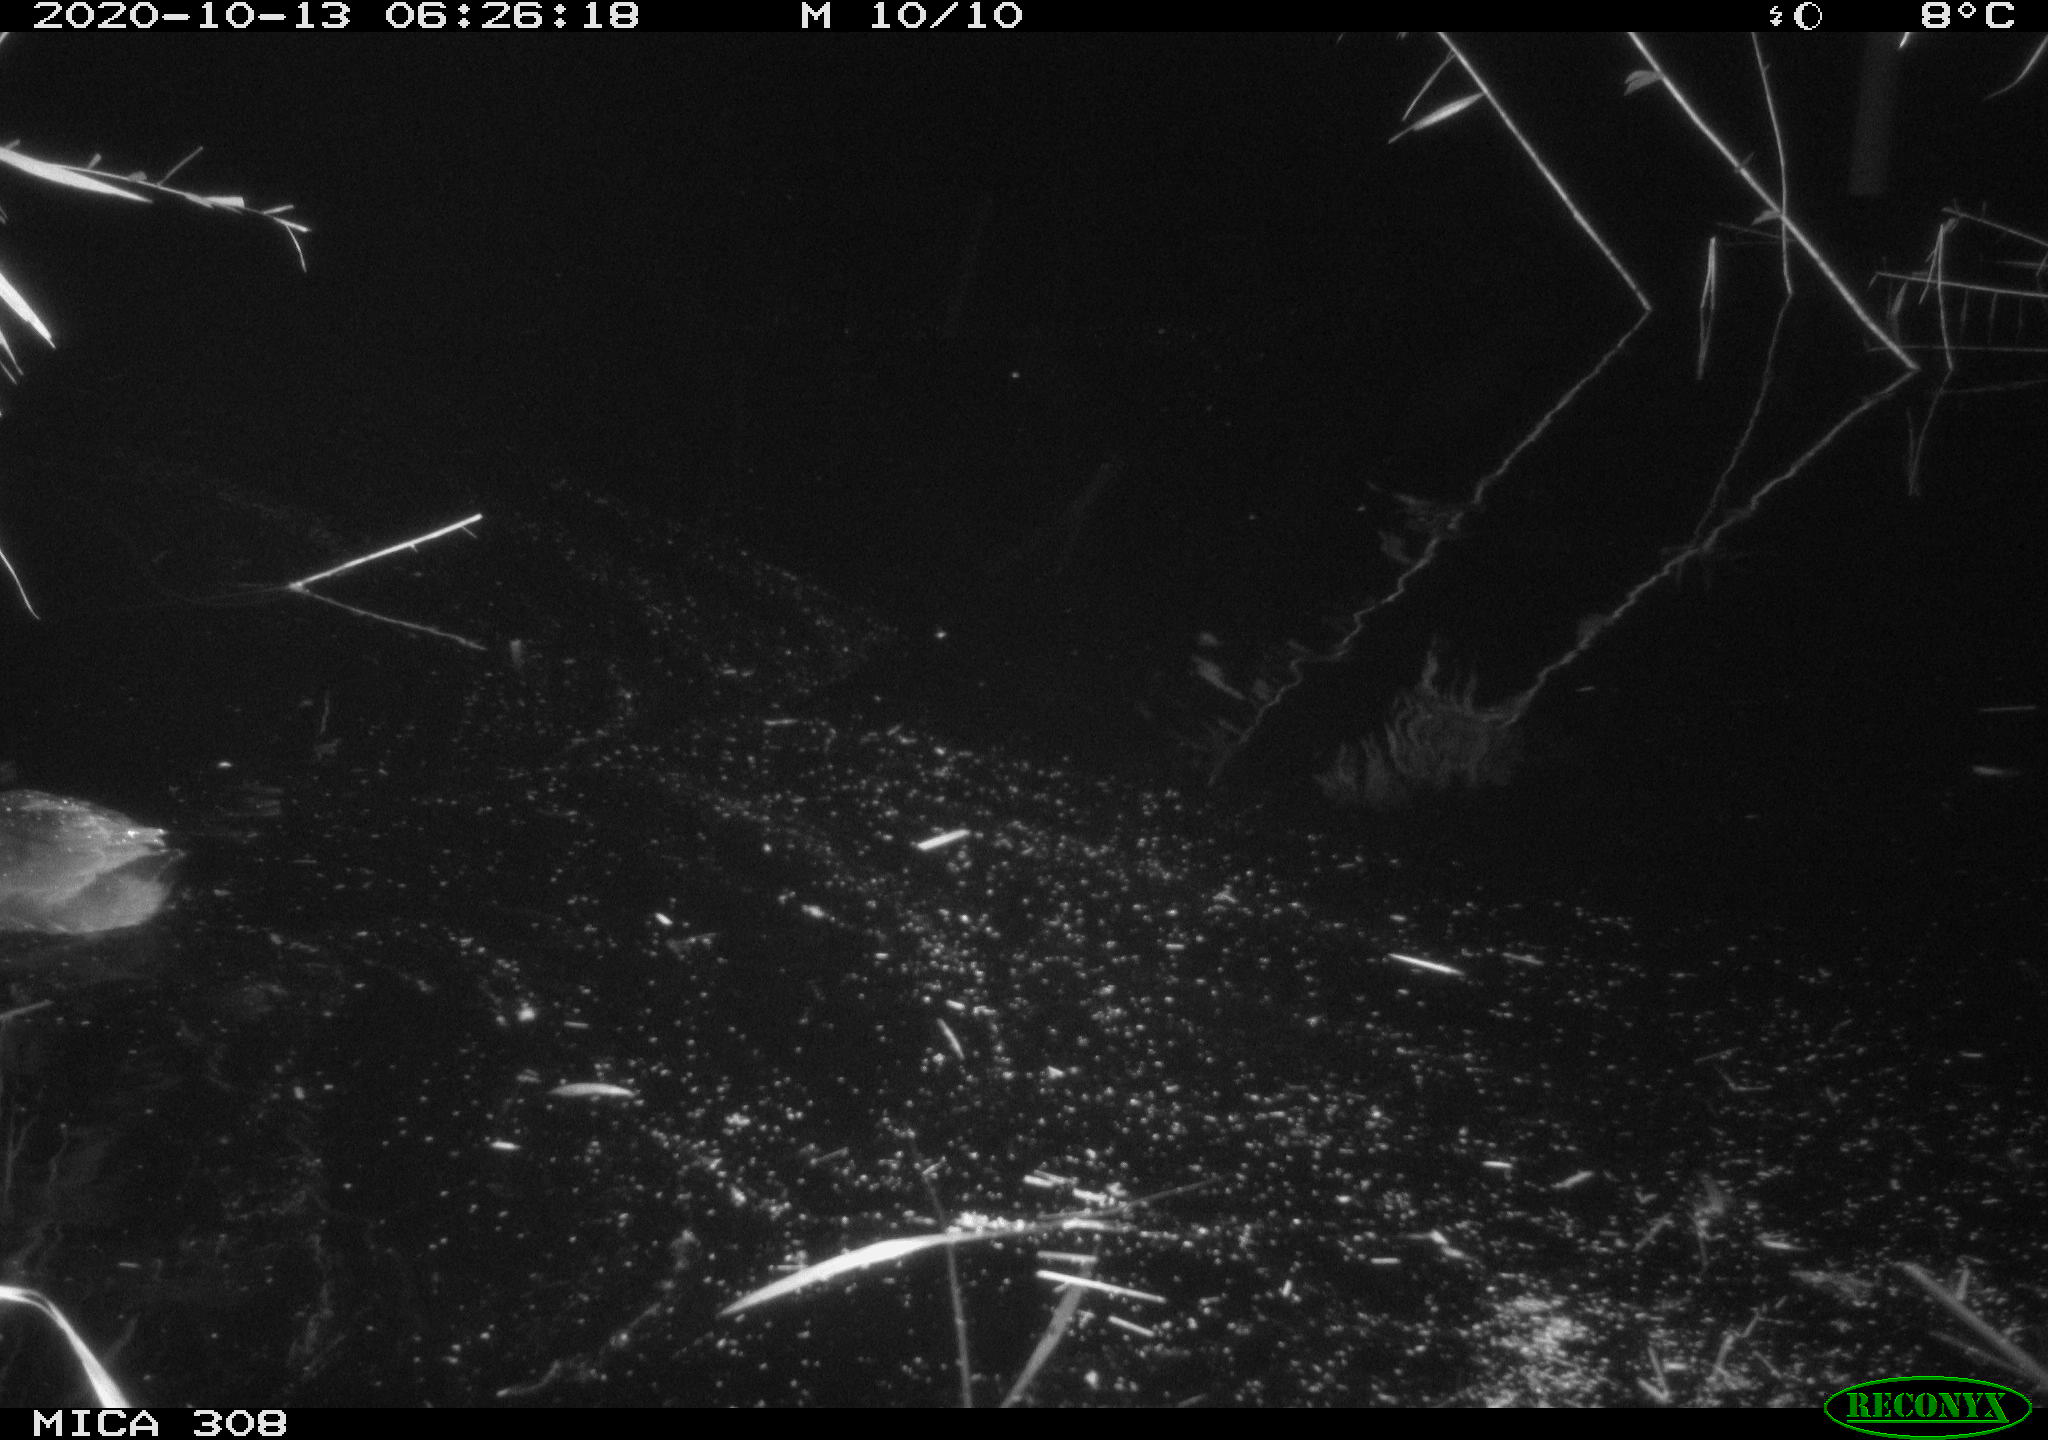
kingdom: Animalia
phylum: Chordata
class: Aves
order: Gruiformes
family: Rallidae
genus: Fulica
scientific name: Fulica atra
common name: Eurasian coot
